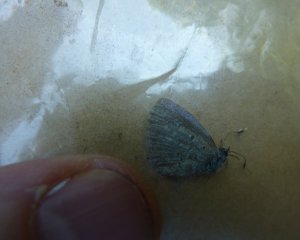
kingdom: Animalia
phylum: Arthropoda
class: Insecta
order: Lepidoptera
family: Lycaenidae
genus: Celastrina
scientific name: Celastrina lucia
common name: Northern Spring Azure
